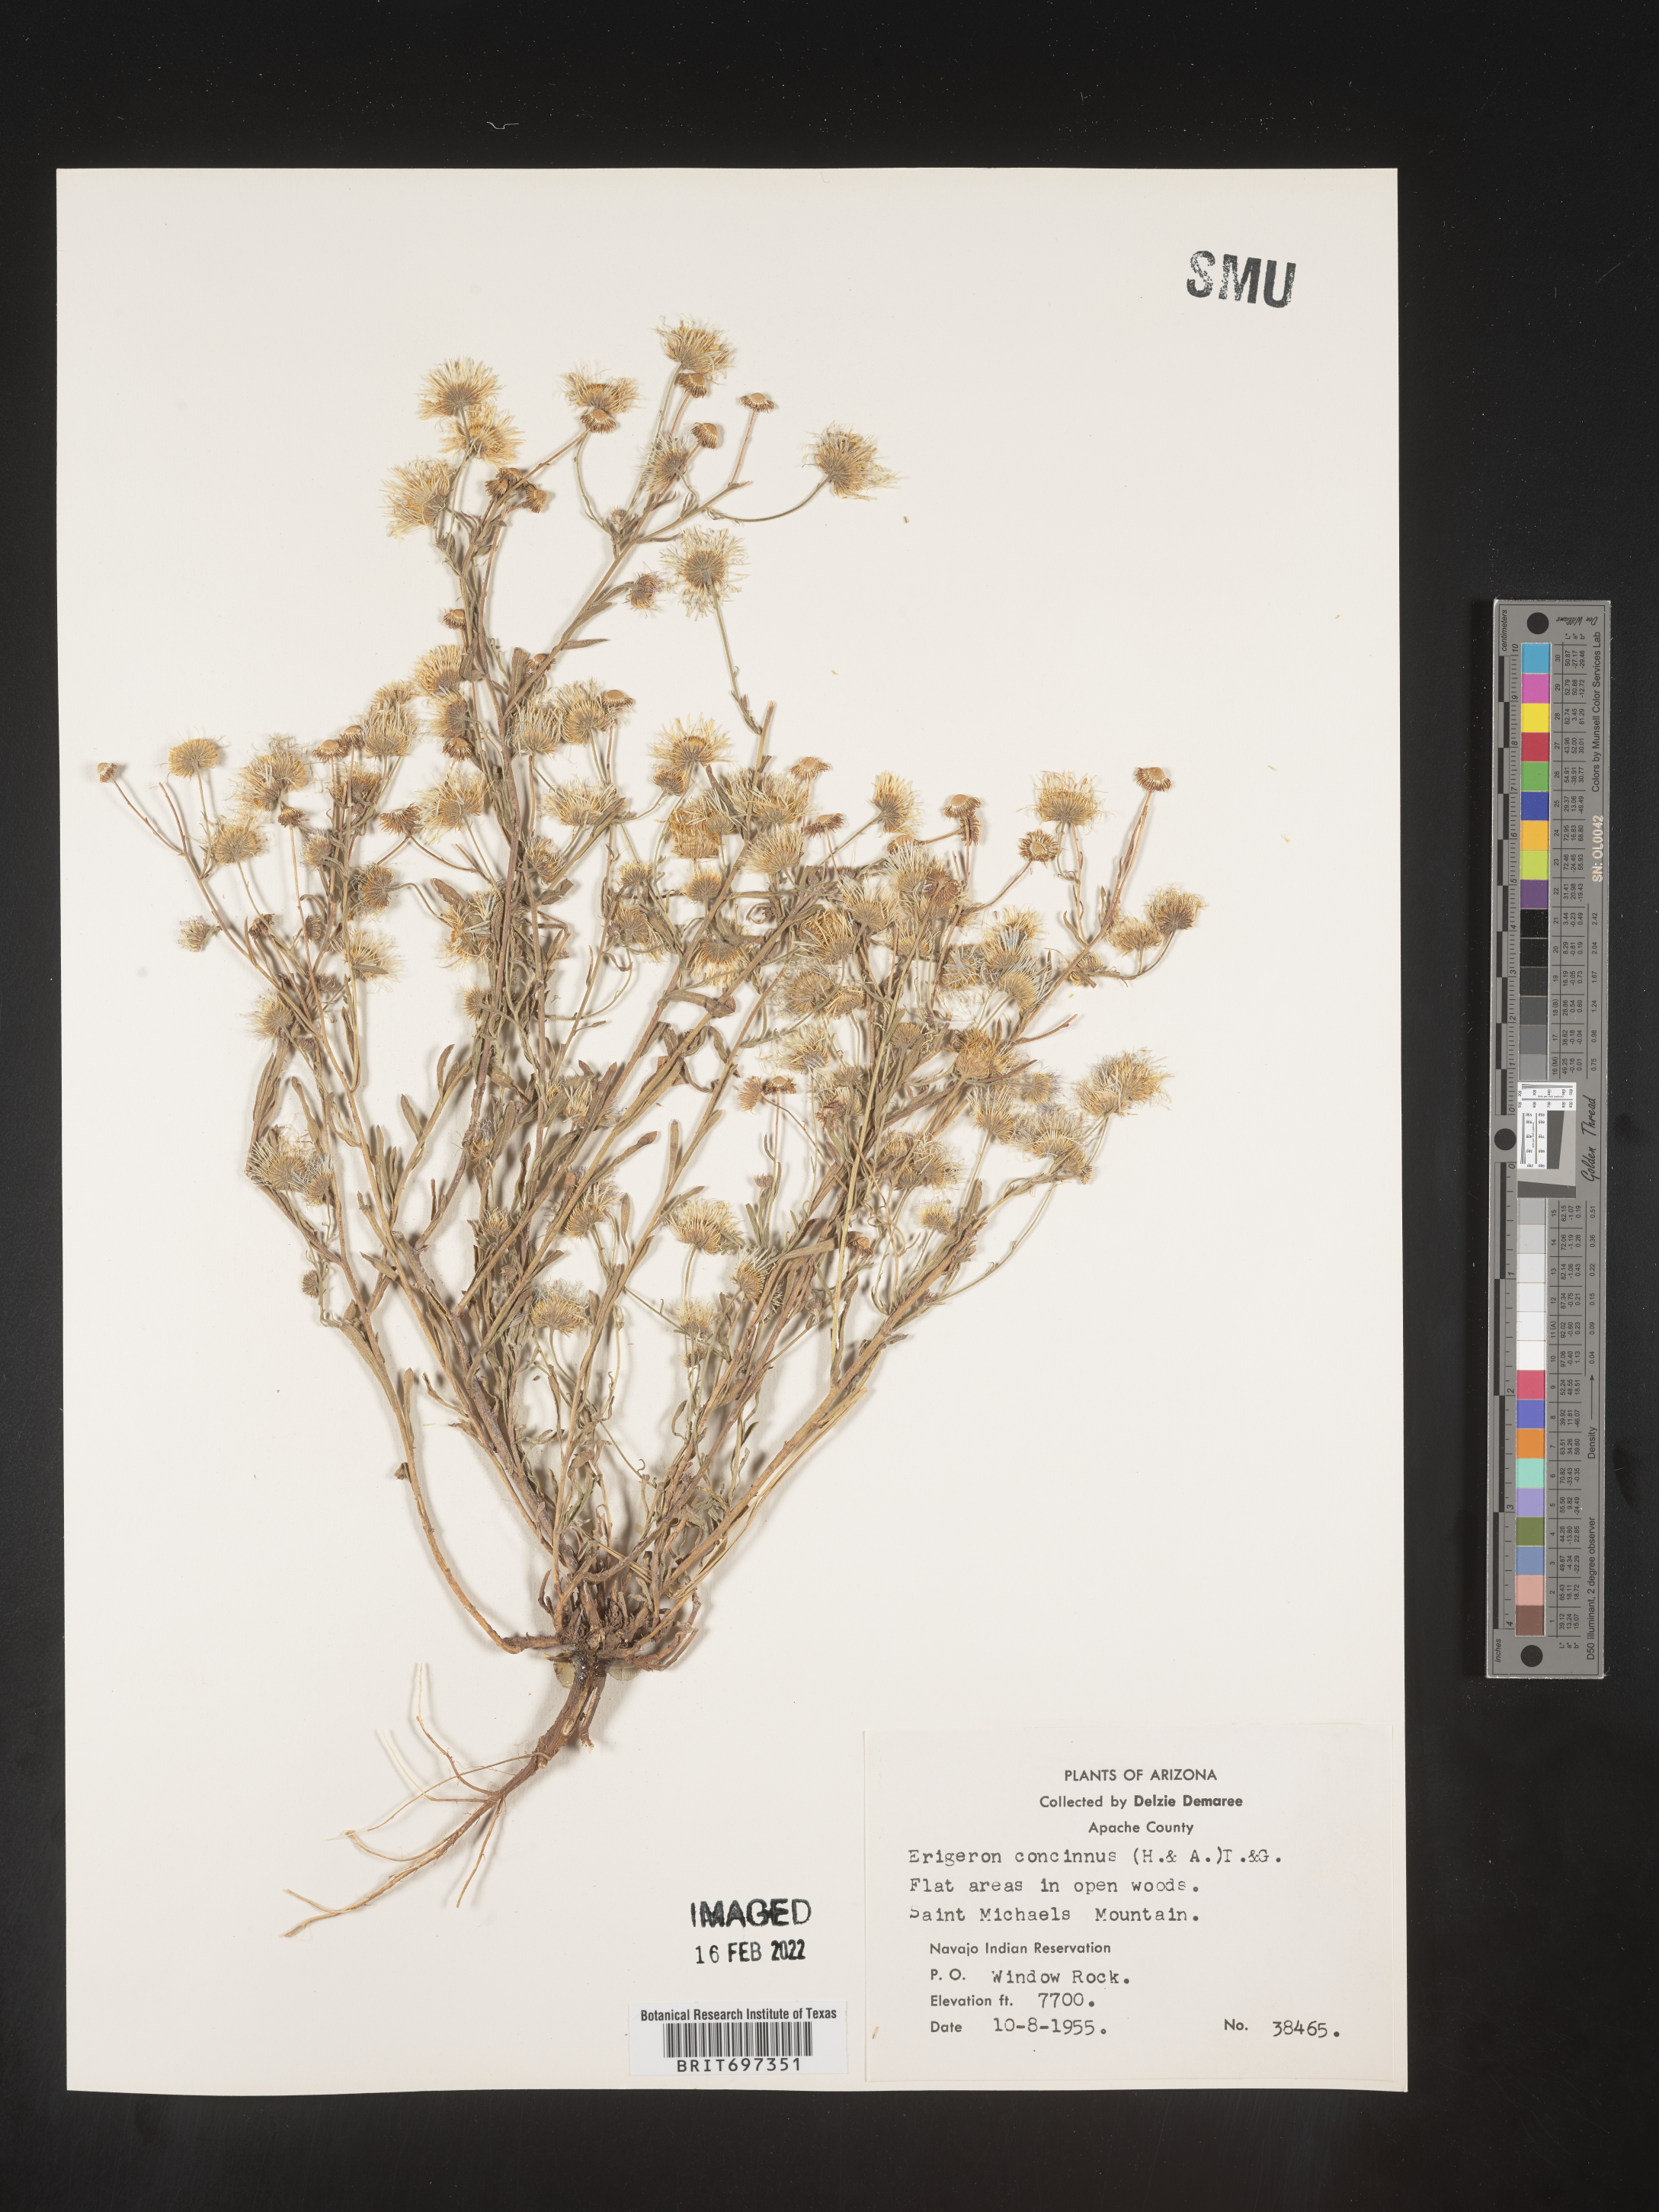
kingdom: Plantae
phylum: Tracheophyta
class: Magnoliopsida
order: Asterales
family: Asteraceae
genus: Erigeron
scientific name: Erigeron divergens
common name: Diffuse fleabane
